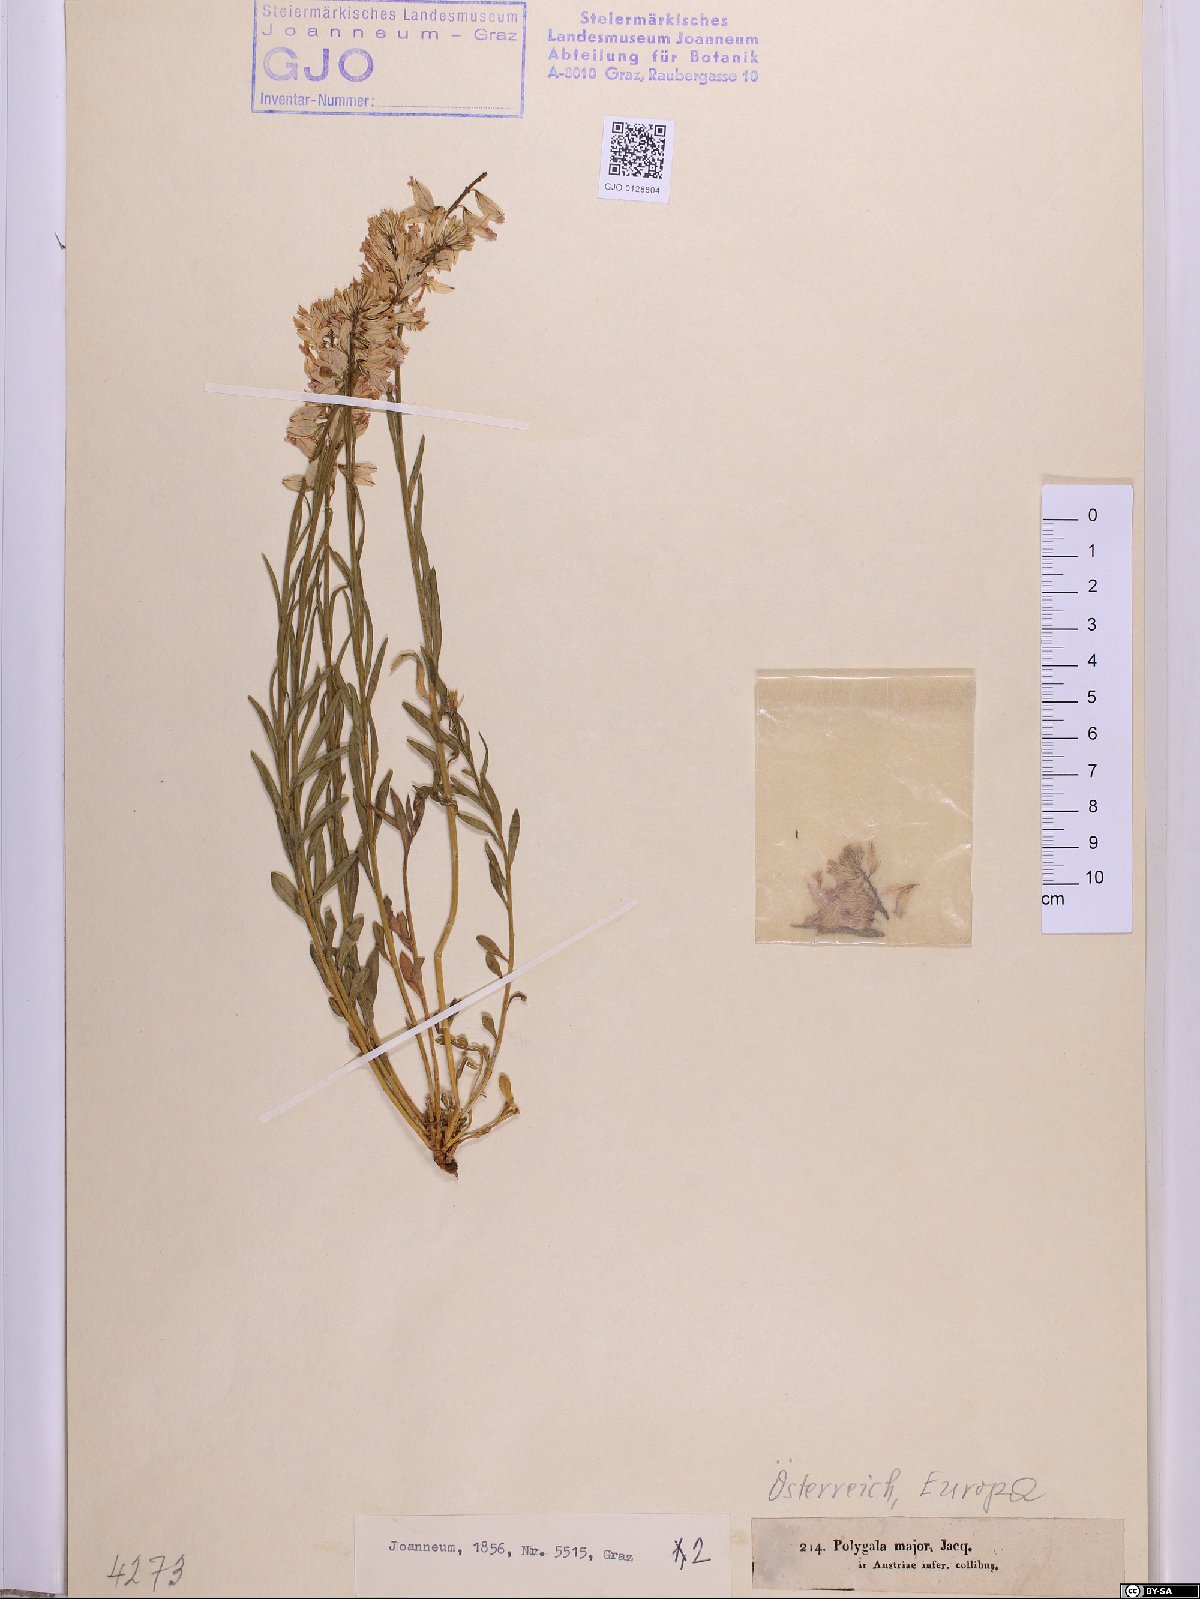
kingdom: Plantae
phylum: Tracheophyta
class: Magnoliopsida
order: Fabales
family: Polygalaceae
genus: Polygala
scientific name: Polygala major
